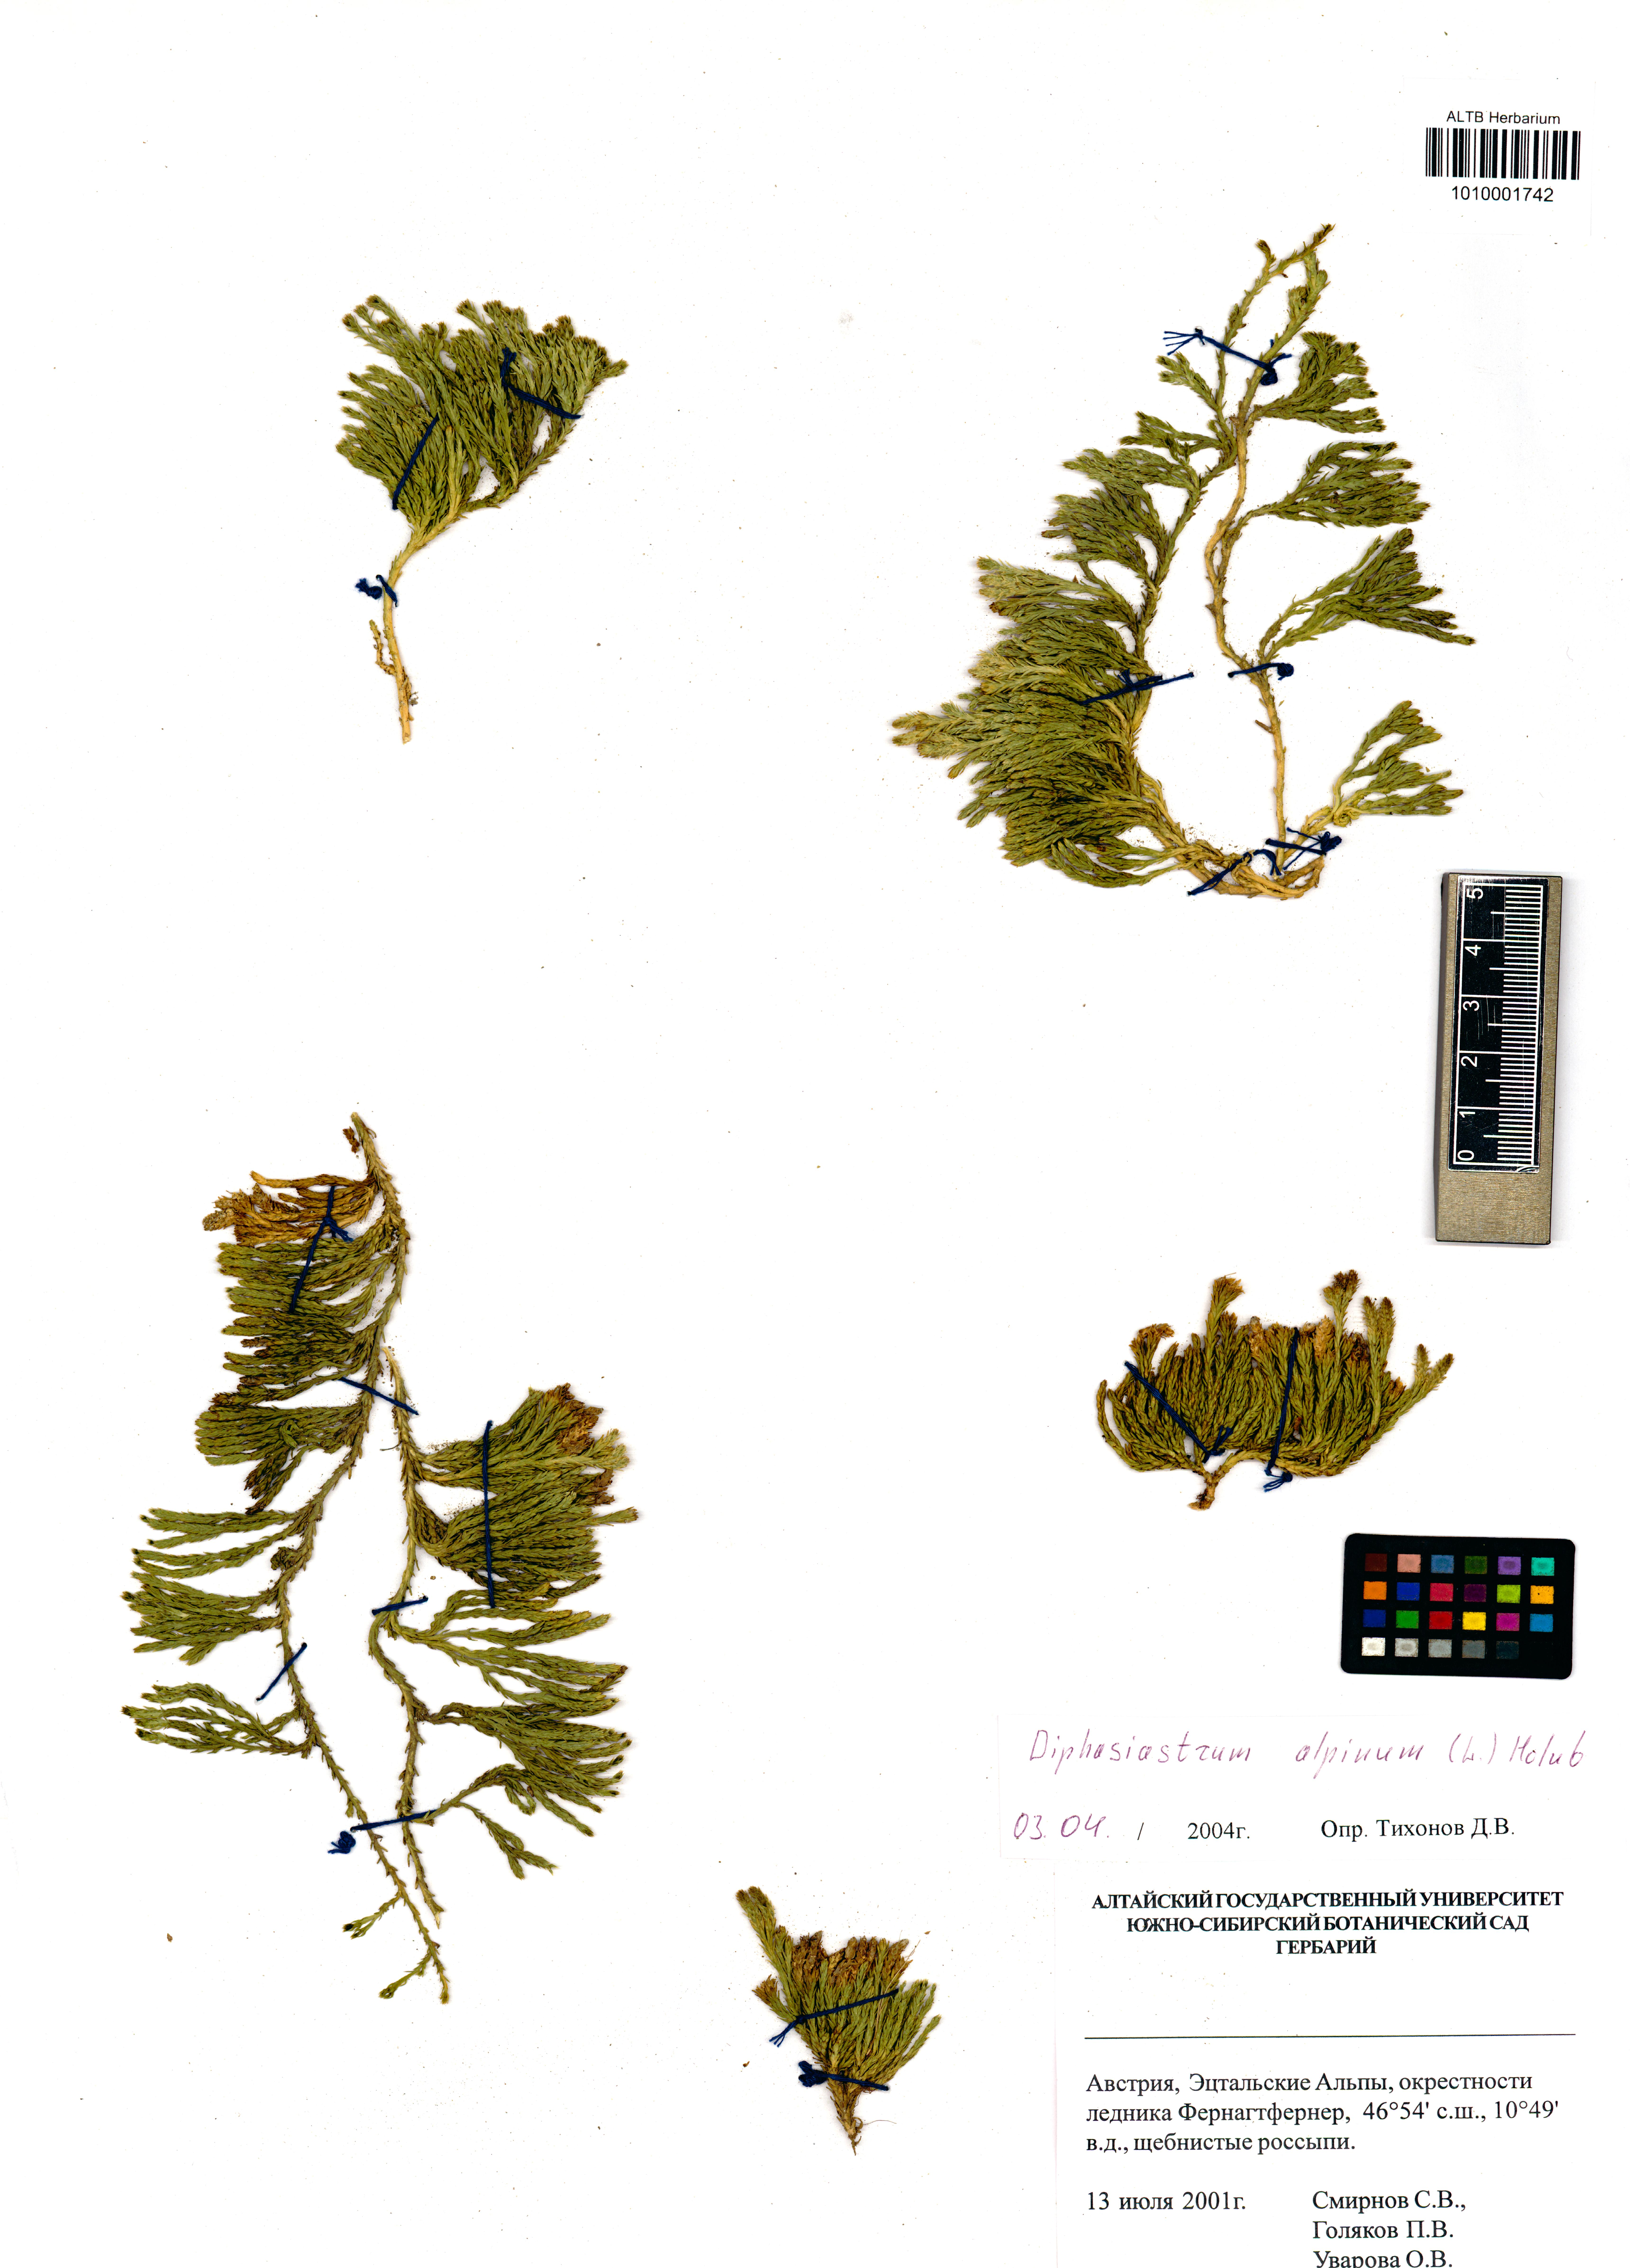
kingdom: Plantae
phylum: Tracheophyta
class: Lycopodiopsida
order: Lycopodiales
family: Lycopodiaceae
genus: Diphasiastrum
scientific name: Diphasiastrum alpinum
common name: Alpine clubmoss
